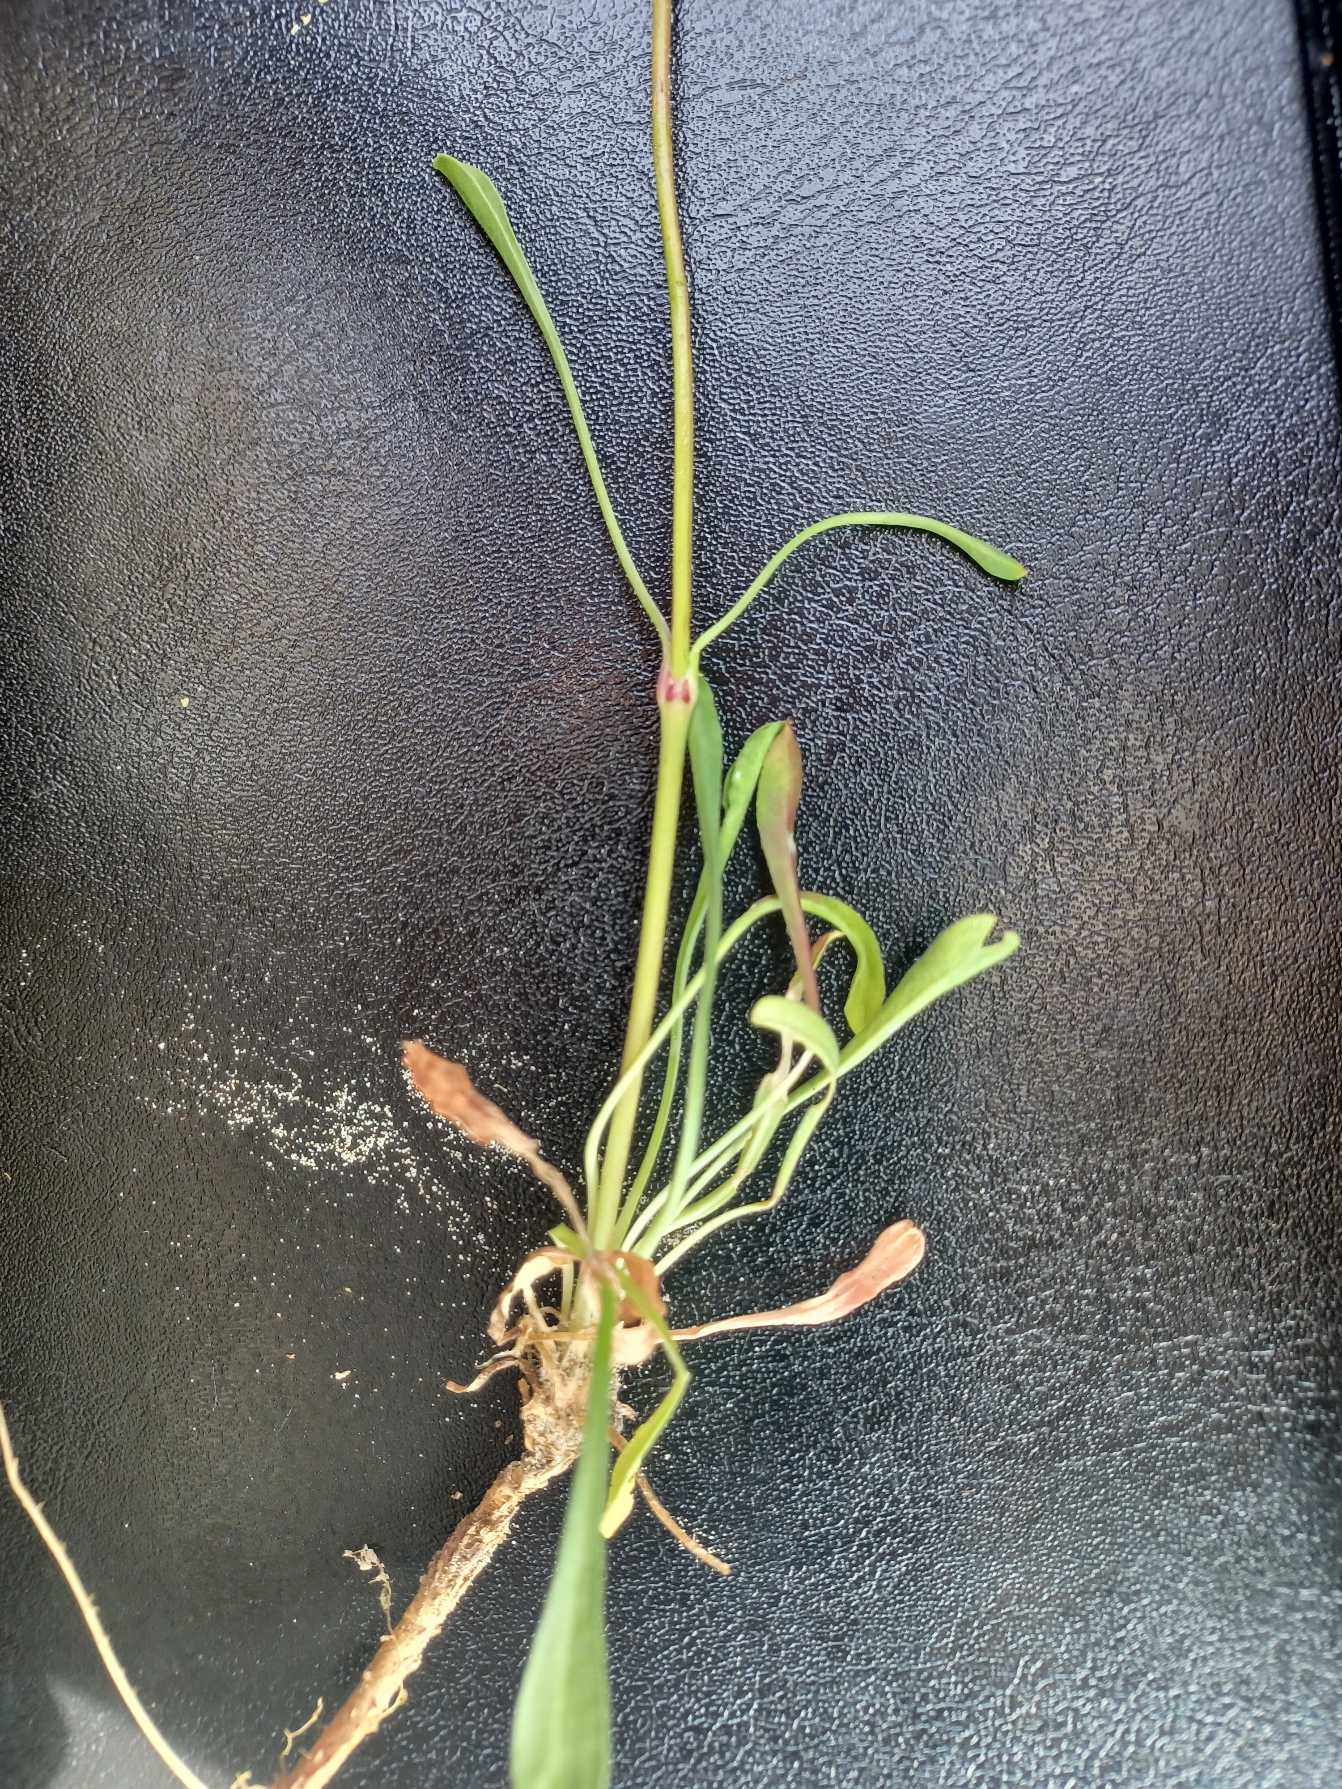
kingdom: Plantae
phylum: Tracheophyta
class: Magnoliopsida
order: Caryophyllales
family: Caryophyllaceae
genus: Silene
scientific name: Silene otites
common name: Klit-limurt
